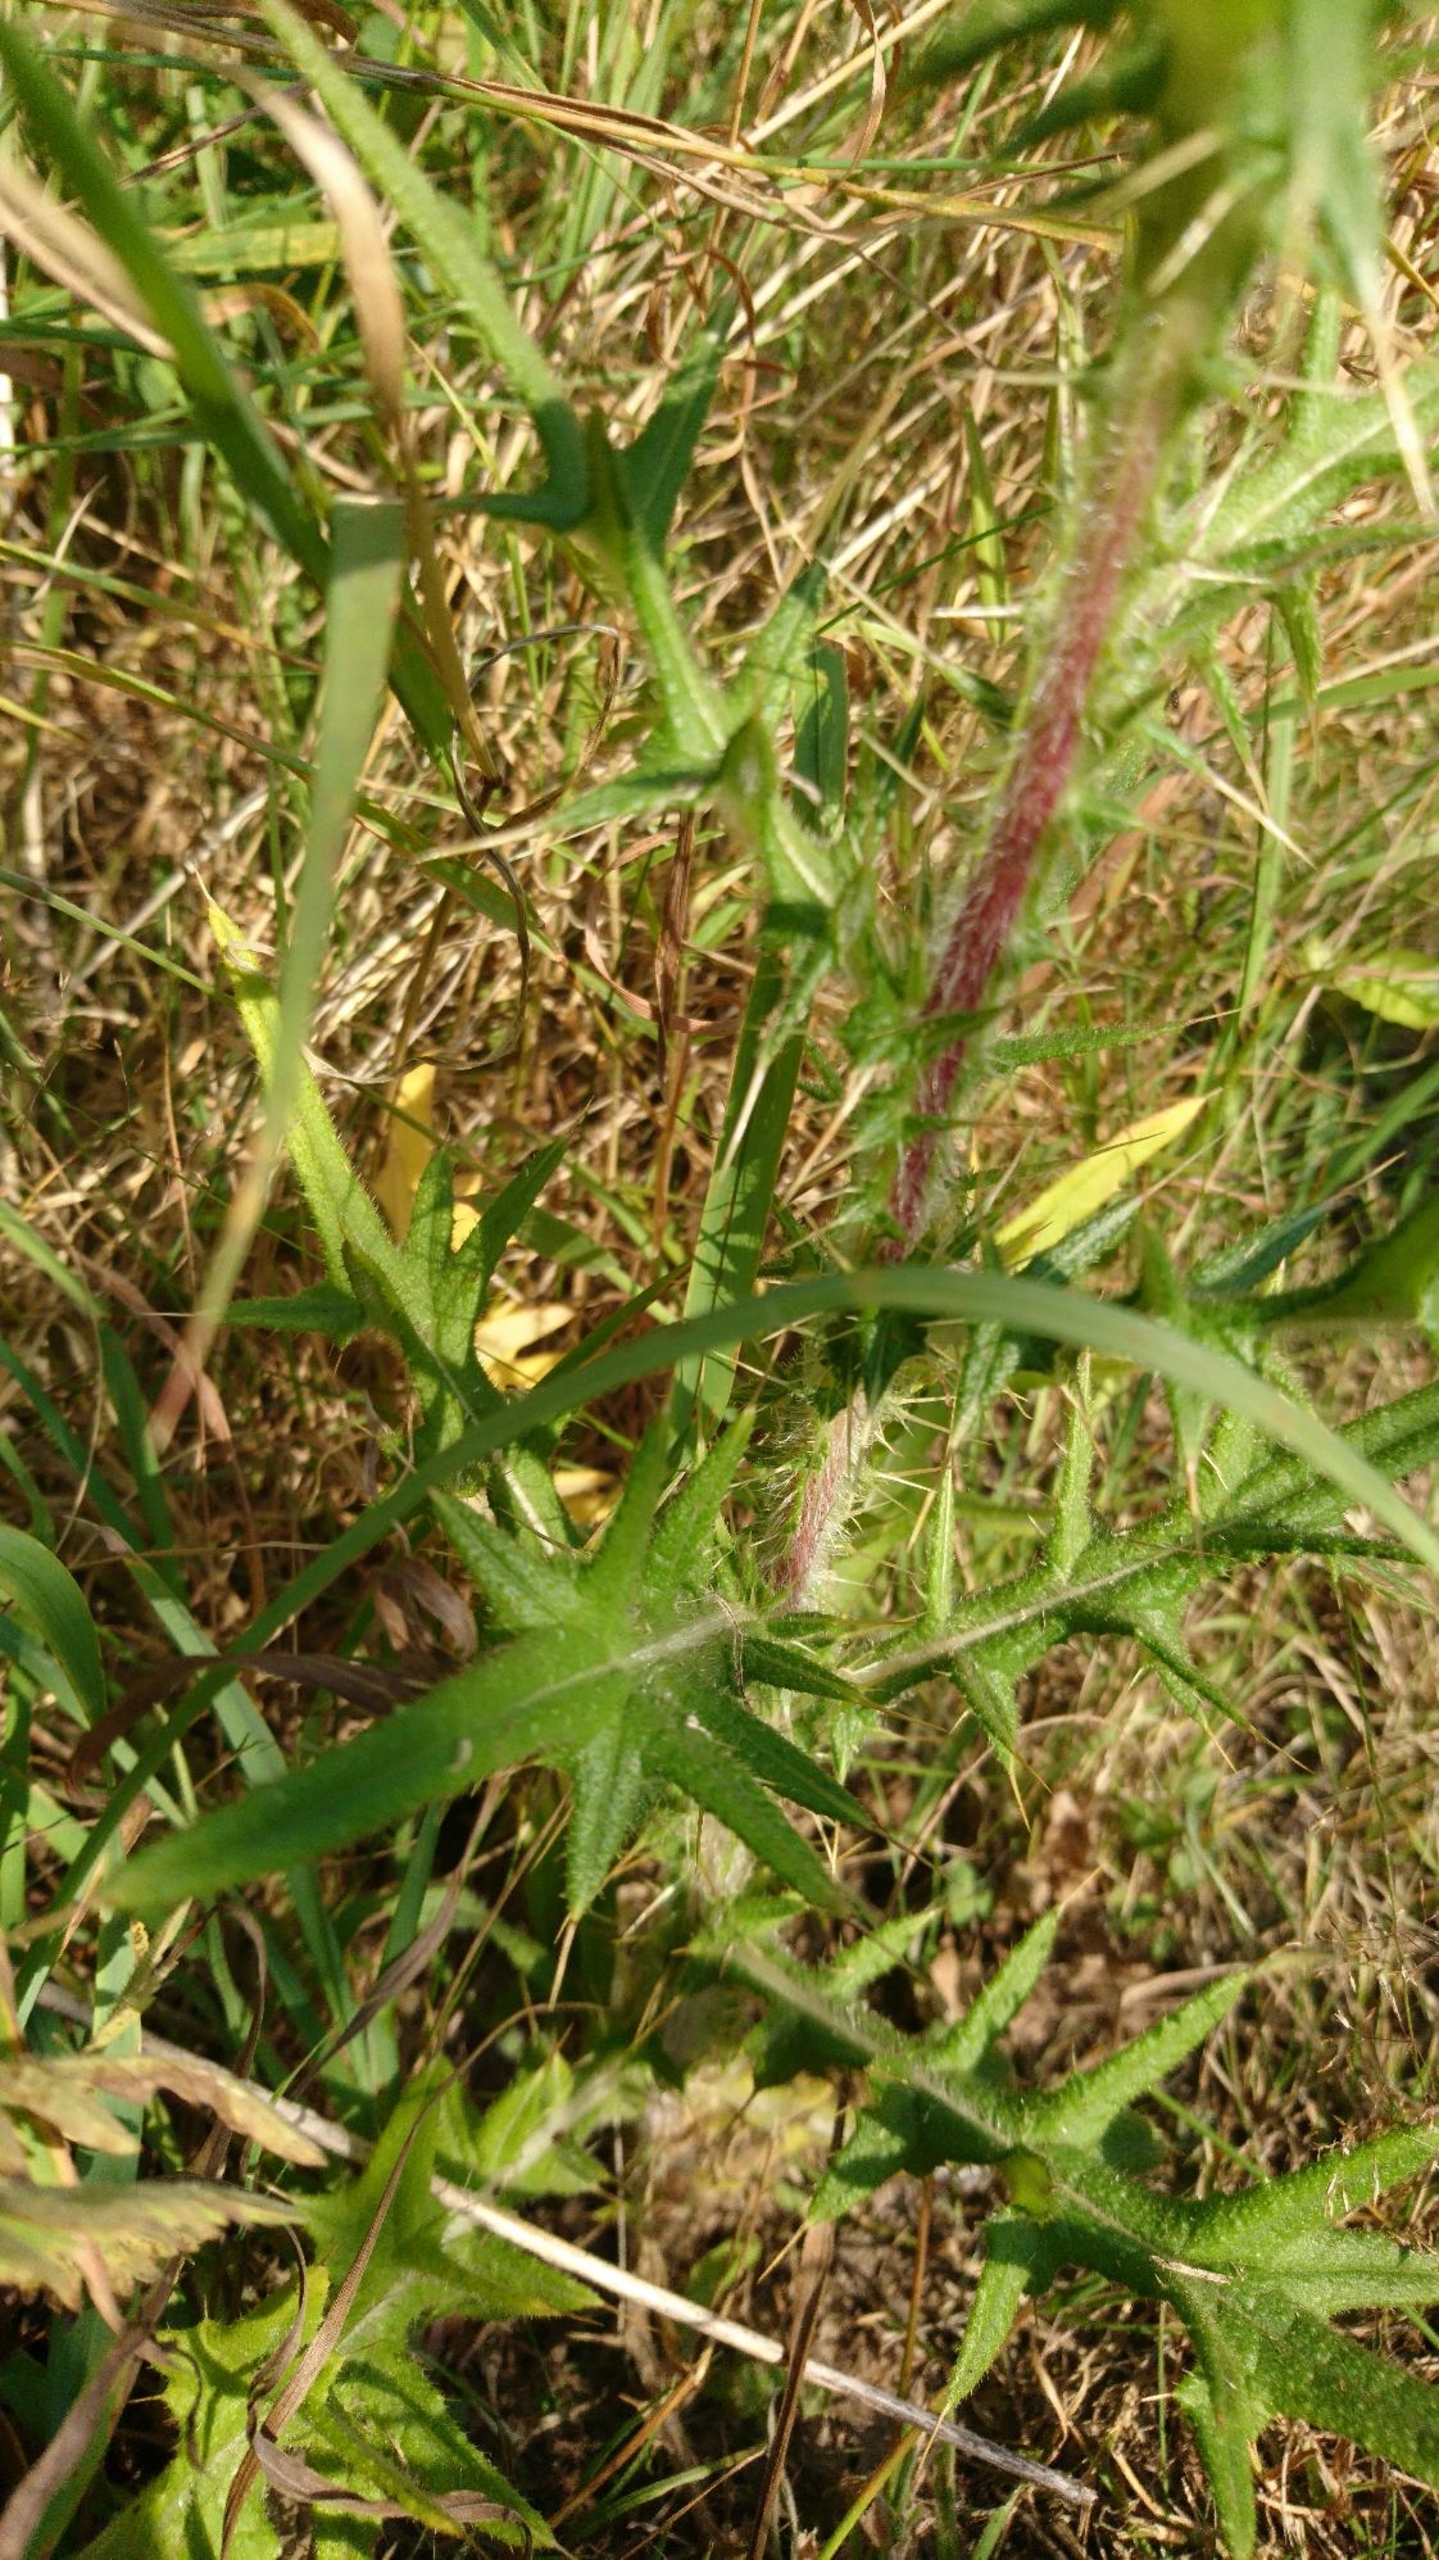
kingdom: Plantae
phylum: Tracheophyta
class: Magnoliopsida
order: Asterales
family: Asteraceae
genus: Cirsium
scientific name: Cirsium vulgare
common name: Horse-tidsel
